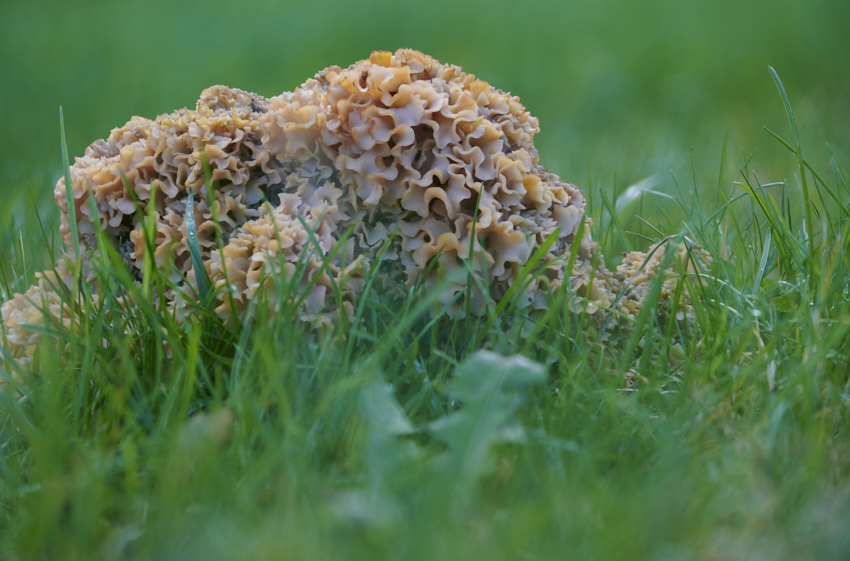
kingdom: Fungi
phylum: Basidiomycota
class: Agaricomycetes
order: Polyporales
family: Sparassidaceae
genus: Sparassis
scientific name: Sparassis crispa
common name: kruset blomkålssvamp
